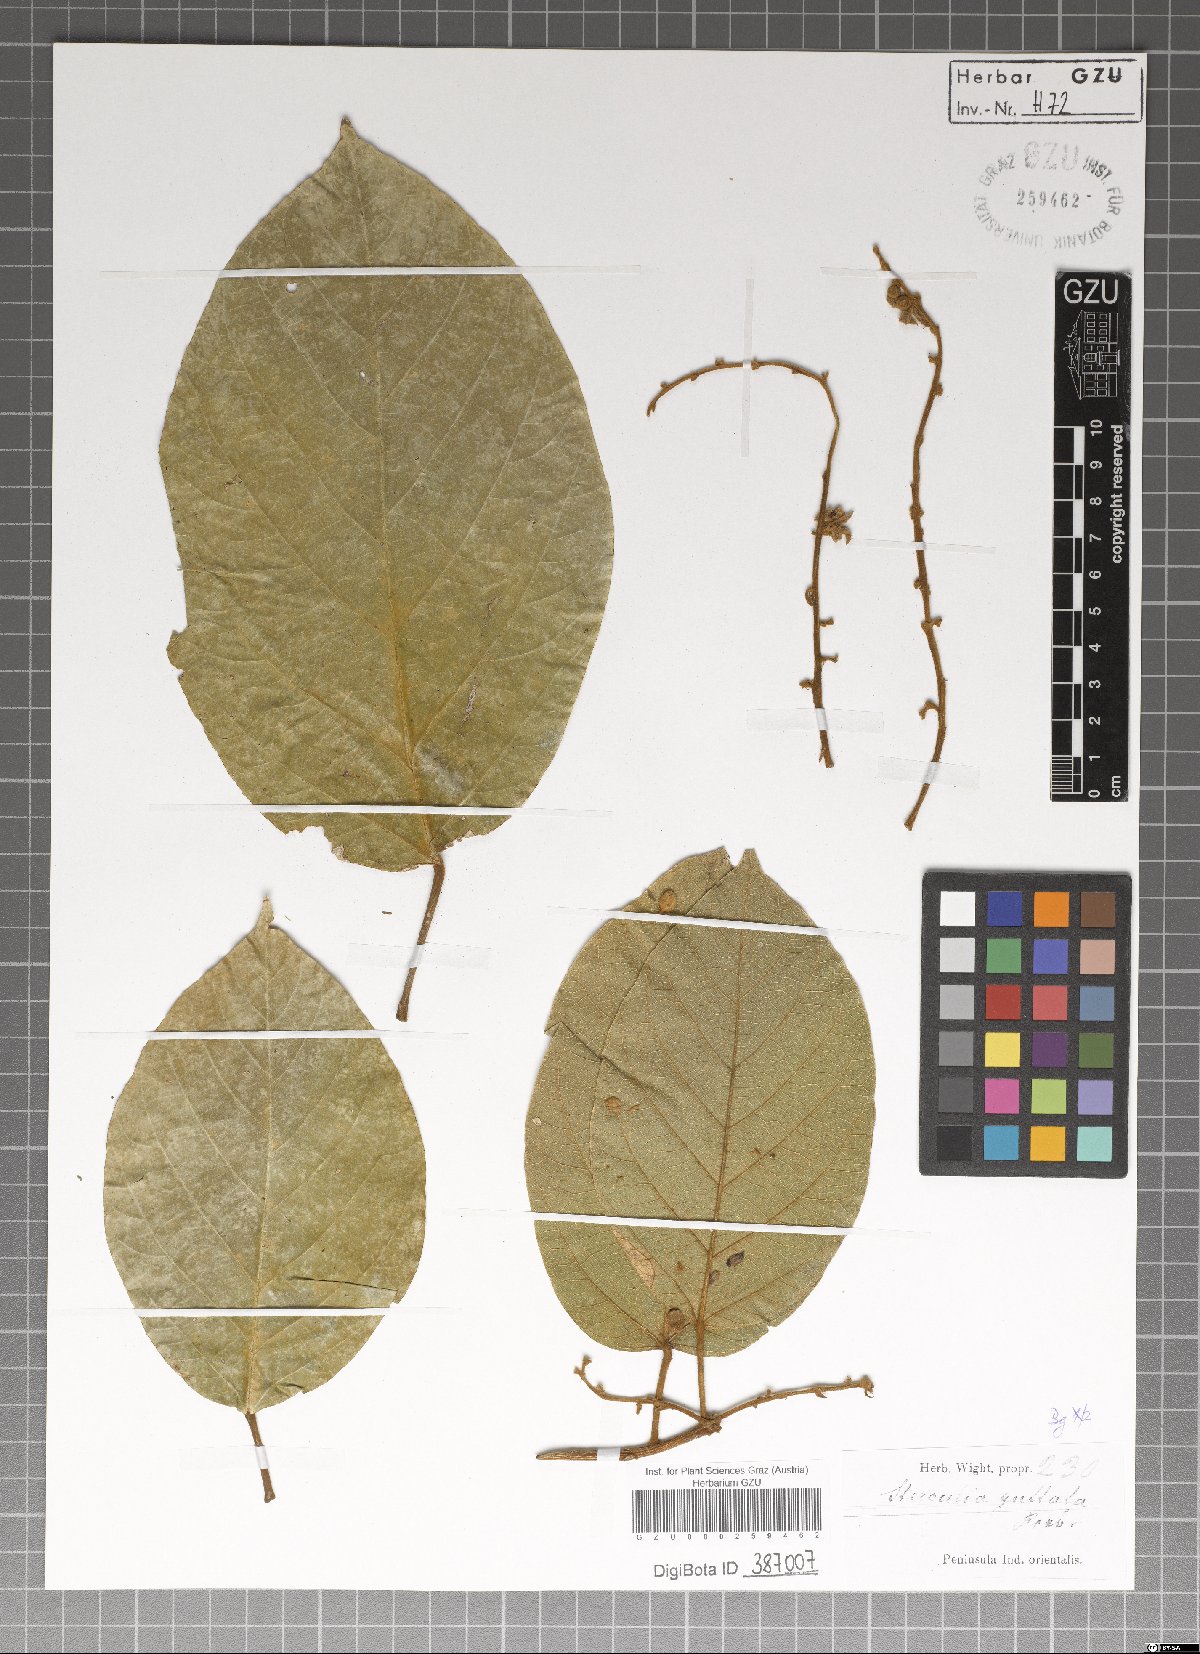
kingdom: Plantae
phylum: Tracheophyta
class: Magnoliopsida
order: Malvales
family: Malvaceae
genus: Sterculia
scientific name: Sterculia guttata
